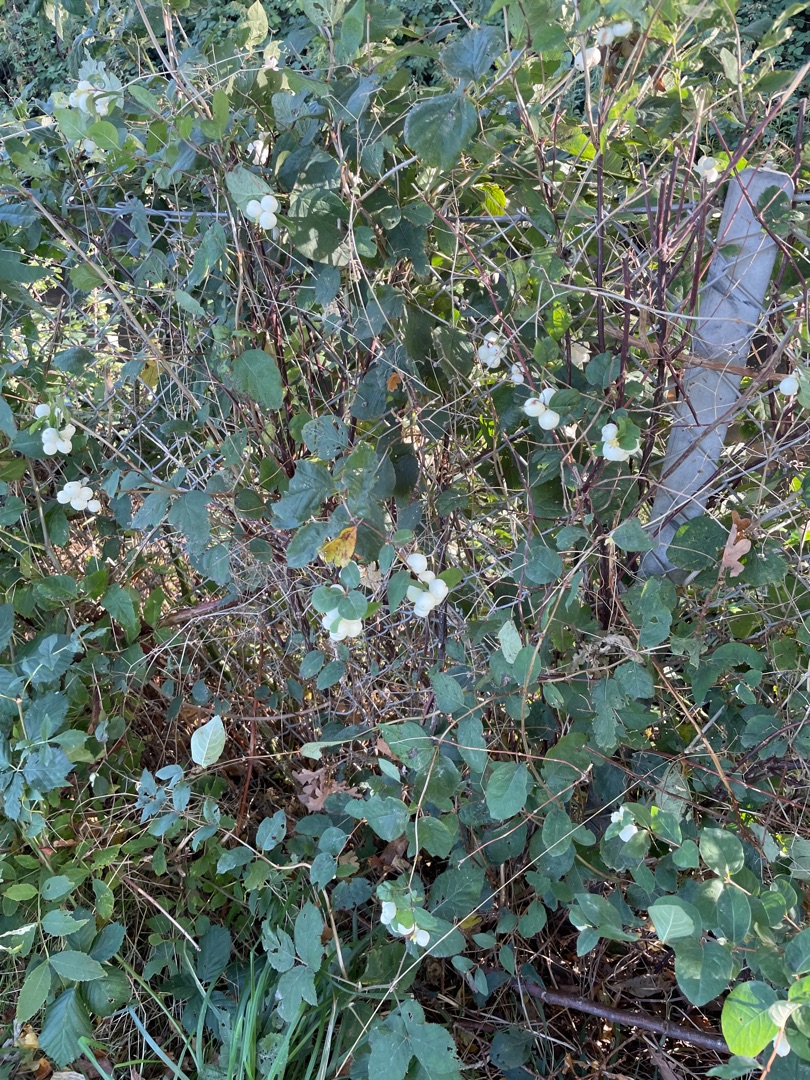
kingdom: Plantae
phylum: Tracheophyta
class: Magnoliopsida
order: Dipsacales
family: Caprifoliaceae
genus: Symphoricarpos
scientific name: Symphoricarpos albus
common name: Almindelig snebær
